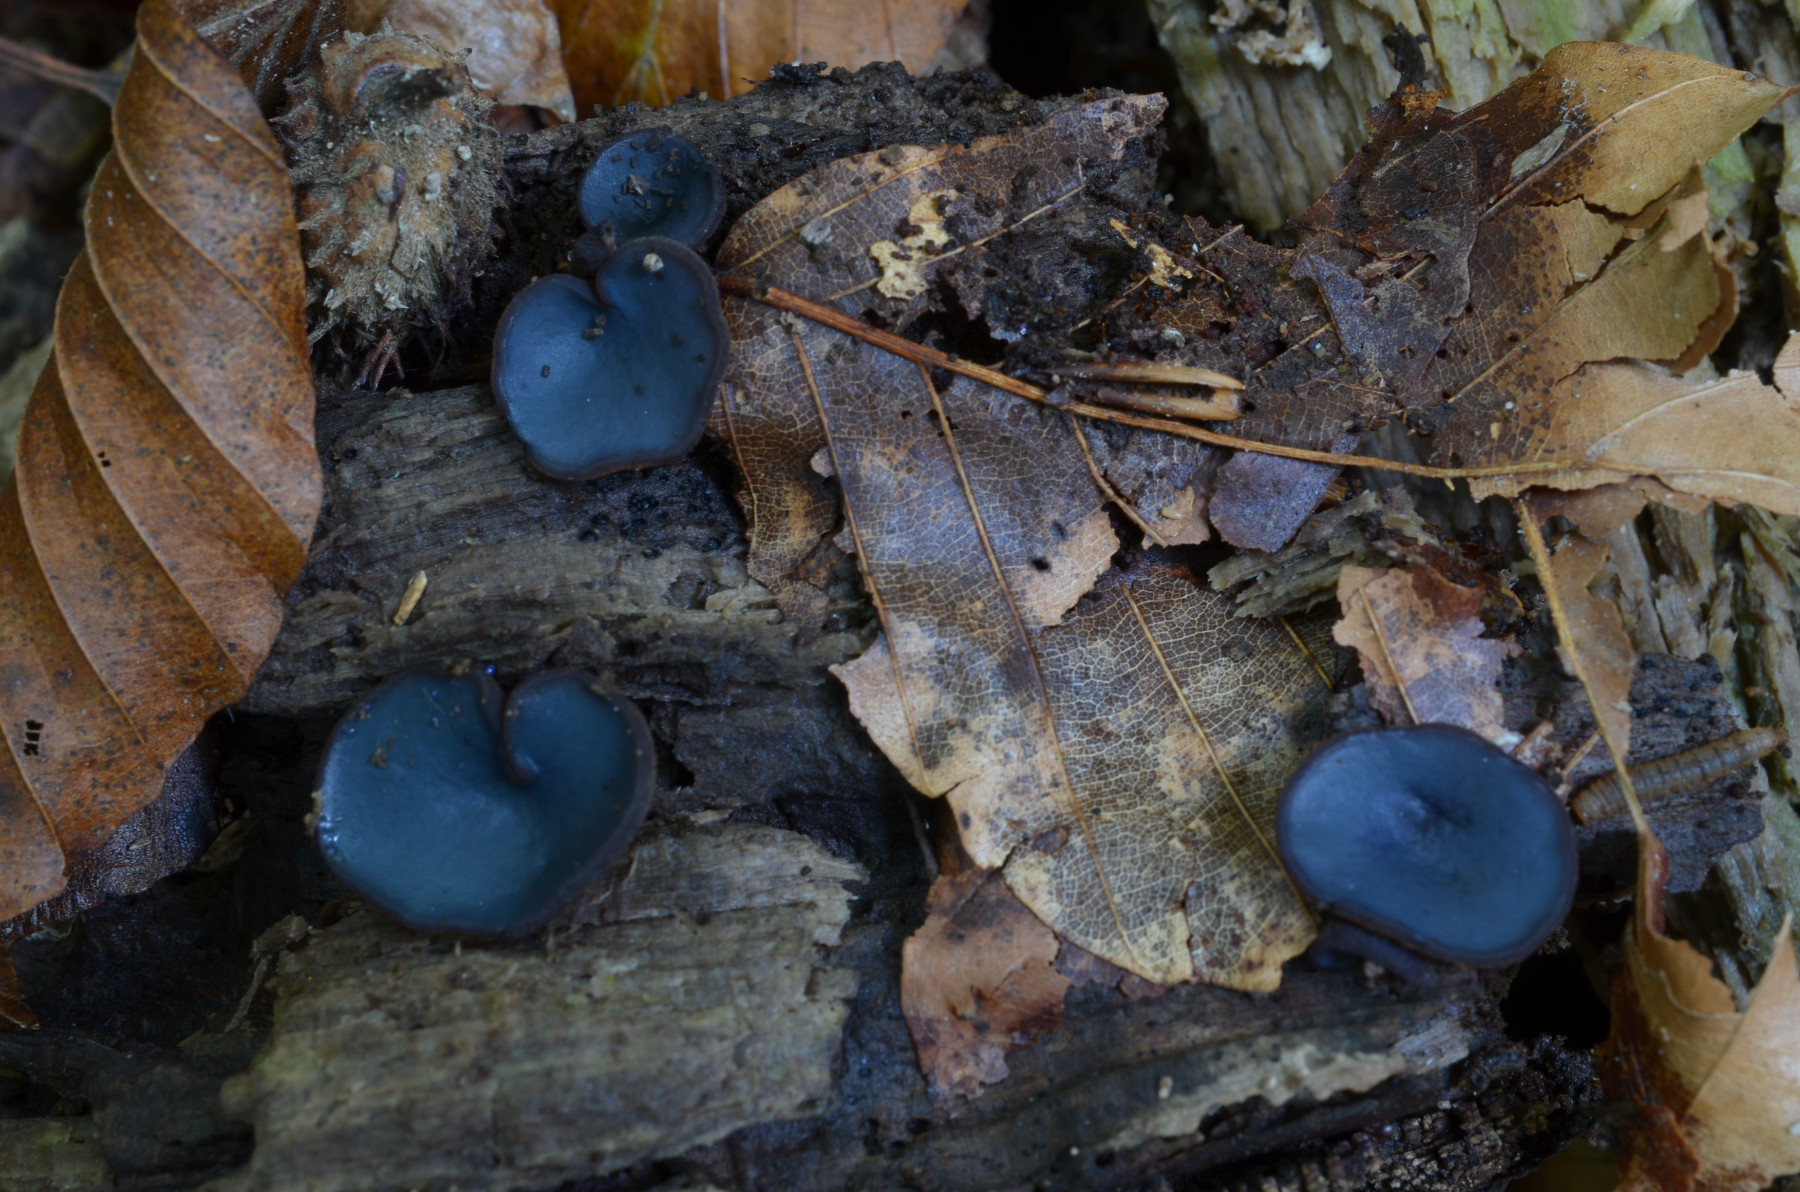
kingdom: Fungi
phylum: Ascomycota
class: Pezizomycetes
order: Pezizales
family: Pezizaceae
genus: Peziza
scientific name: Peziza saniosa
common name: blåmælket bægersvamp
